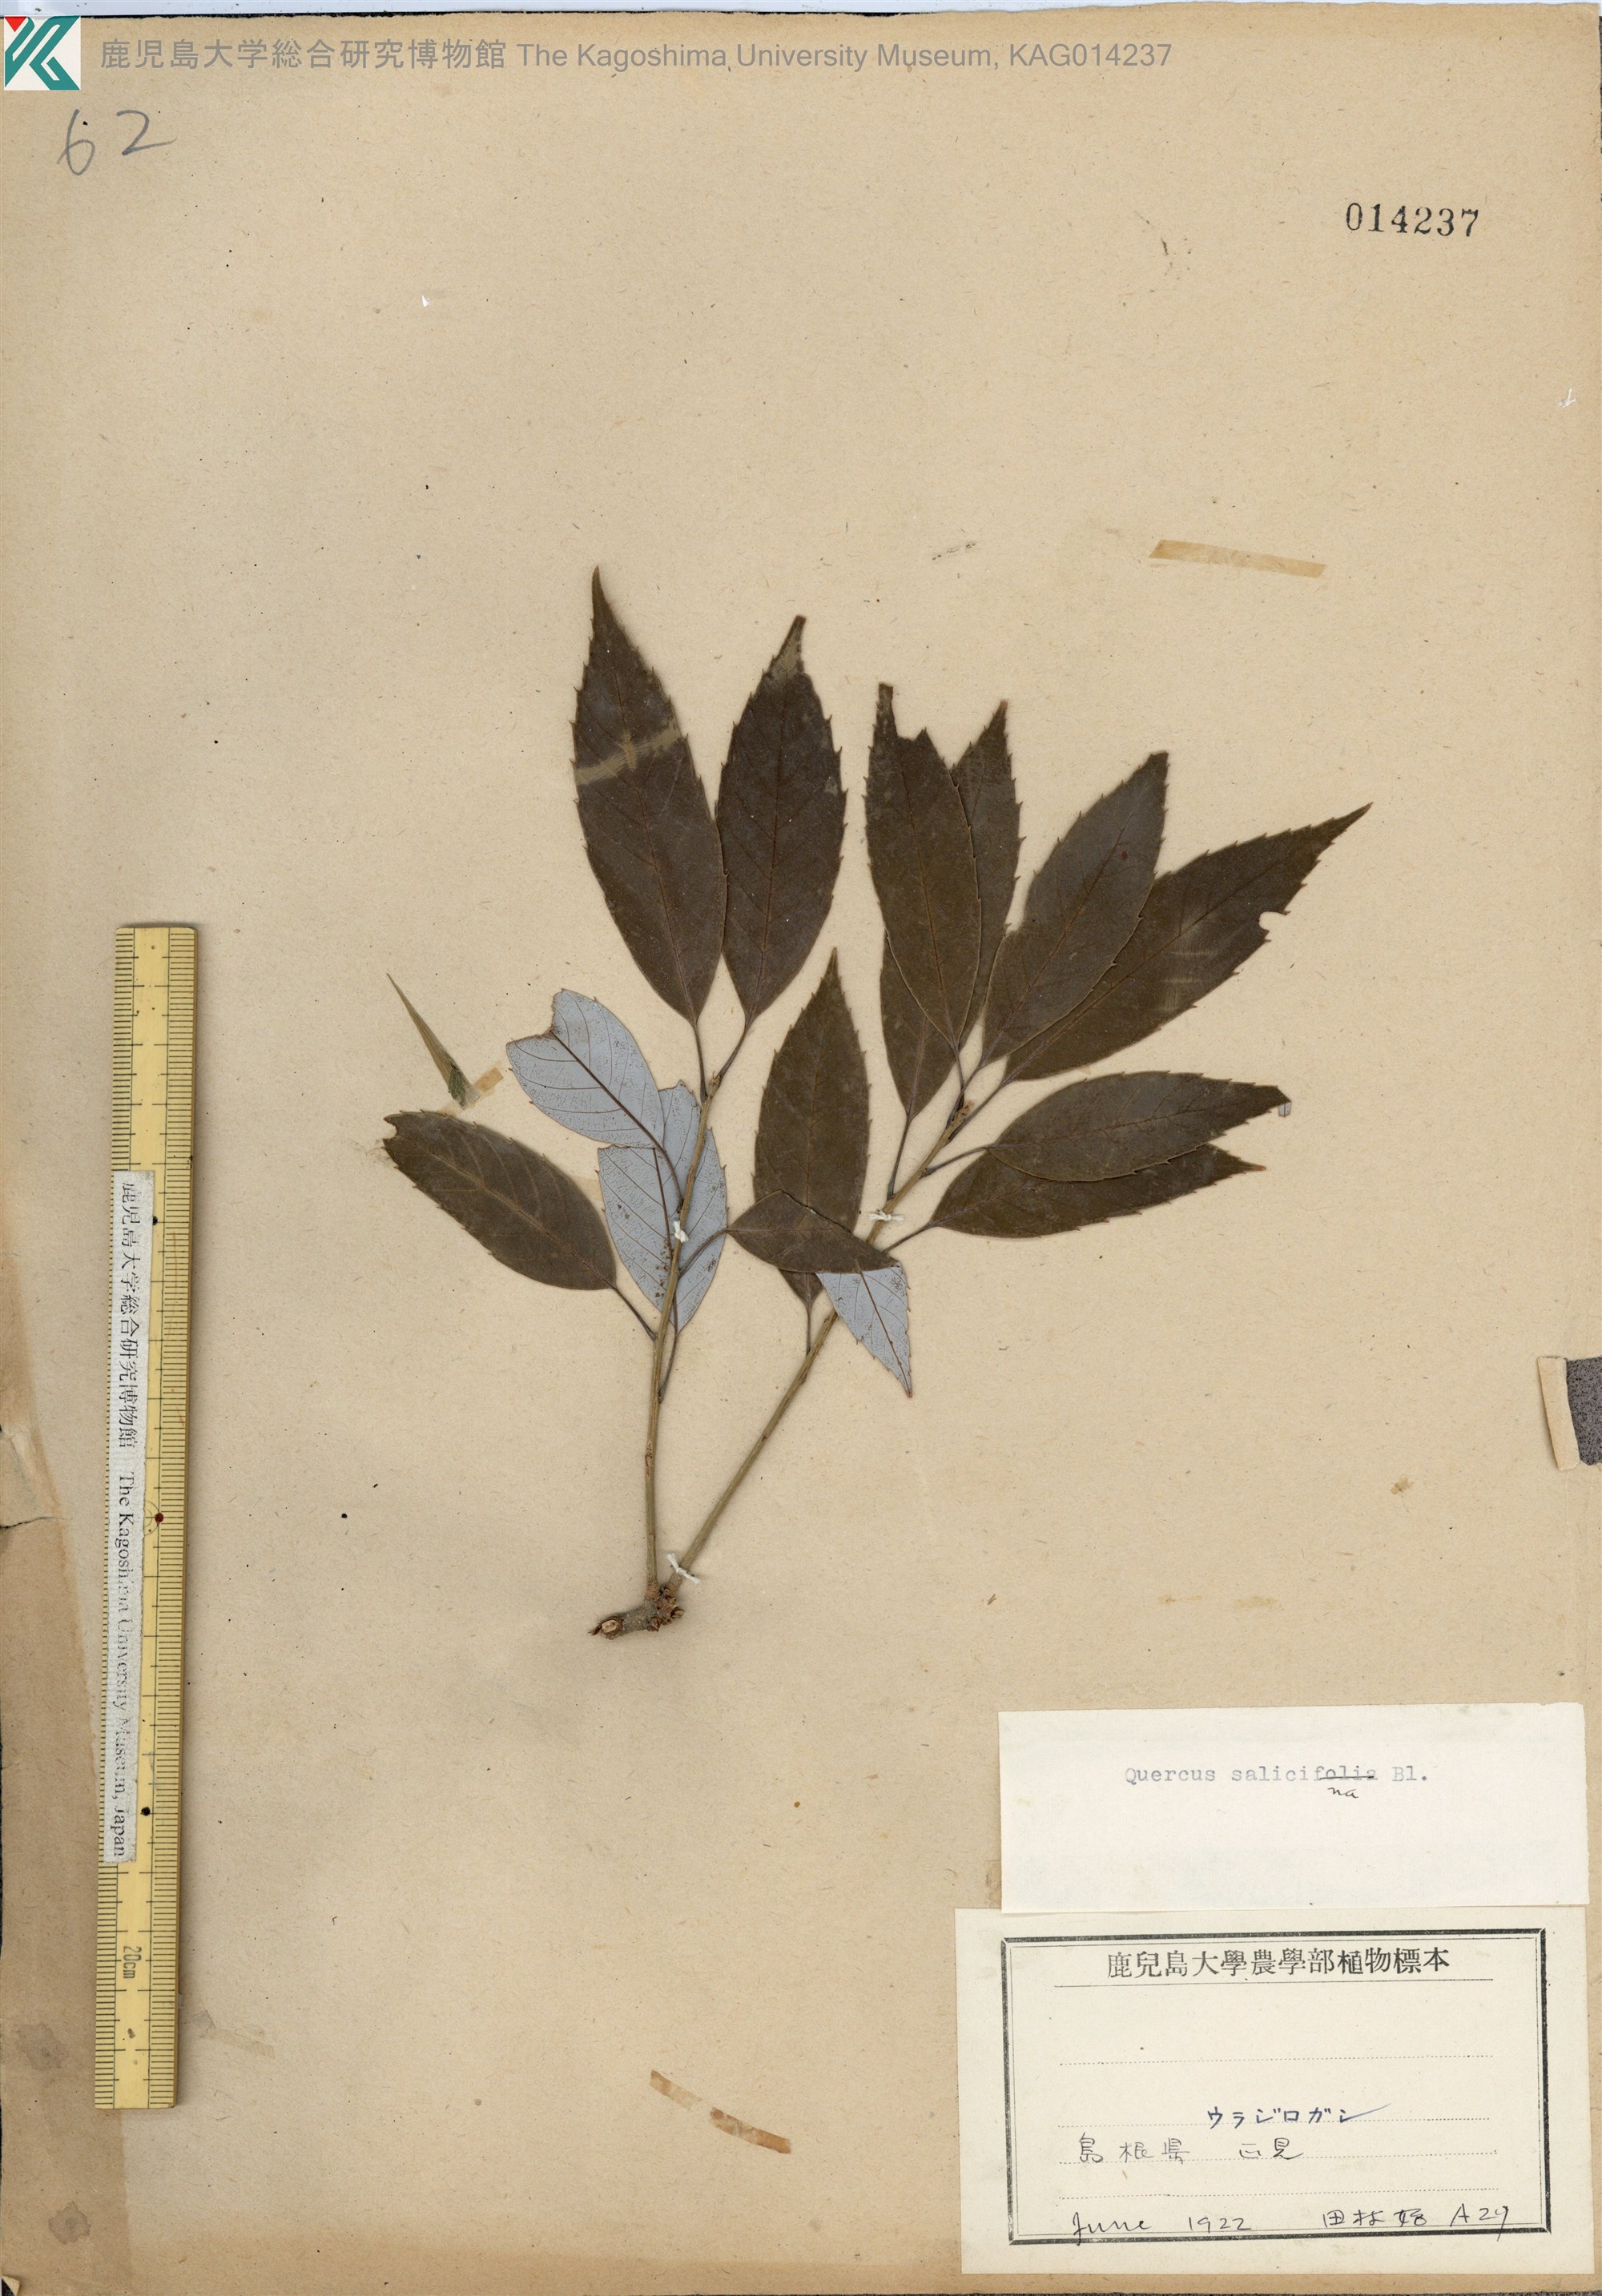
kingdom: Plantae
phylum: Tracheophyta
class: Magnoliopsida
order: Fagales
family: Fagaceae
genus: Quercus
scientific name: Quercus salicina
